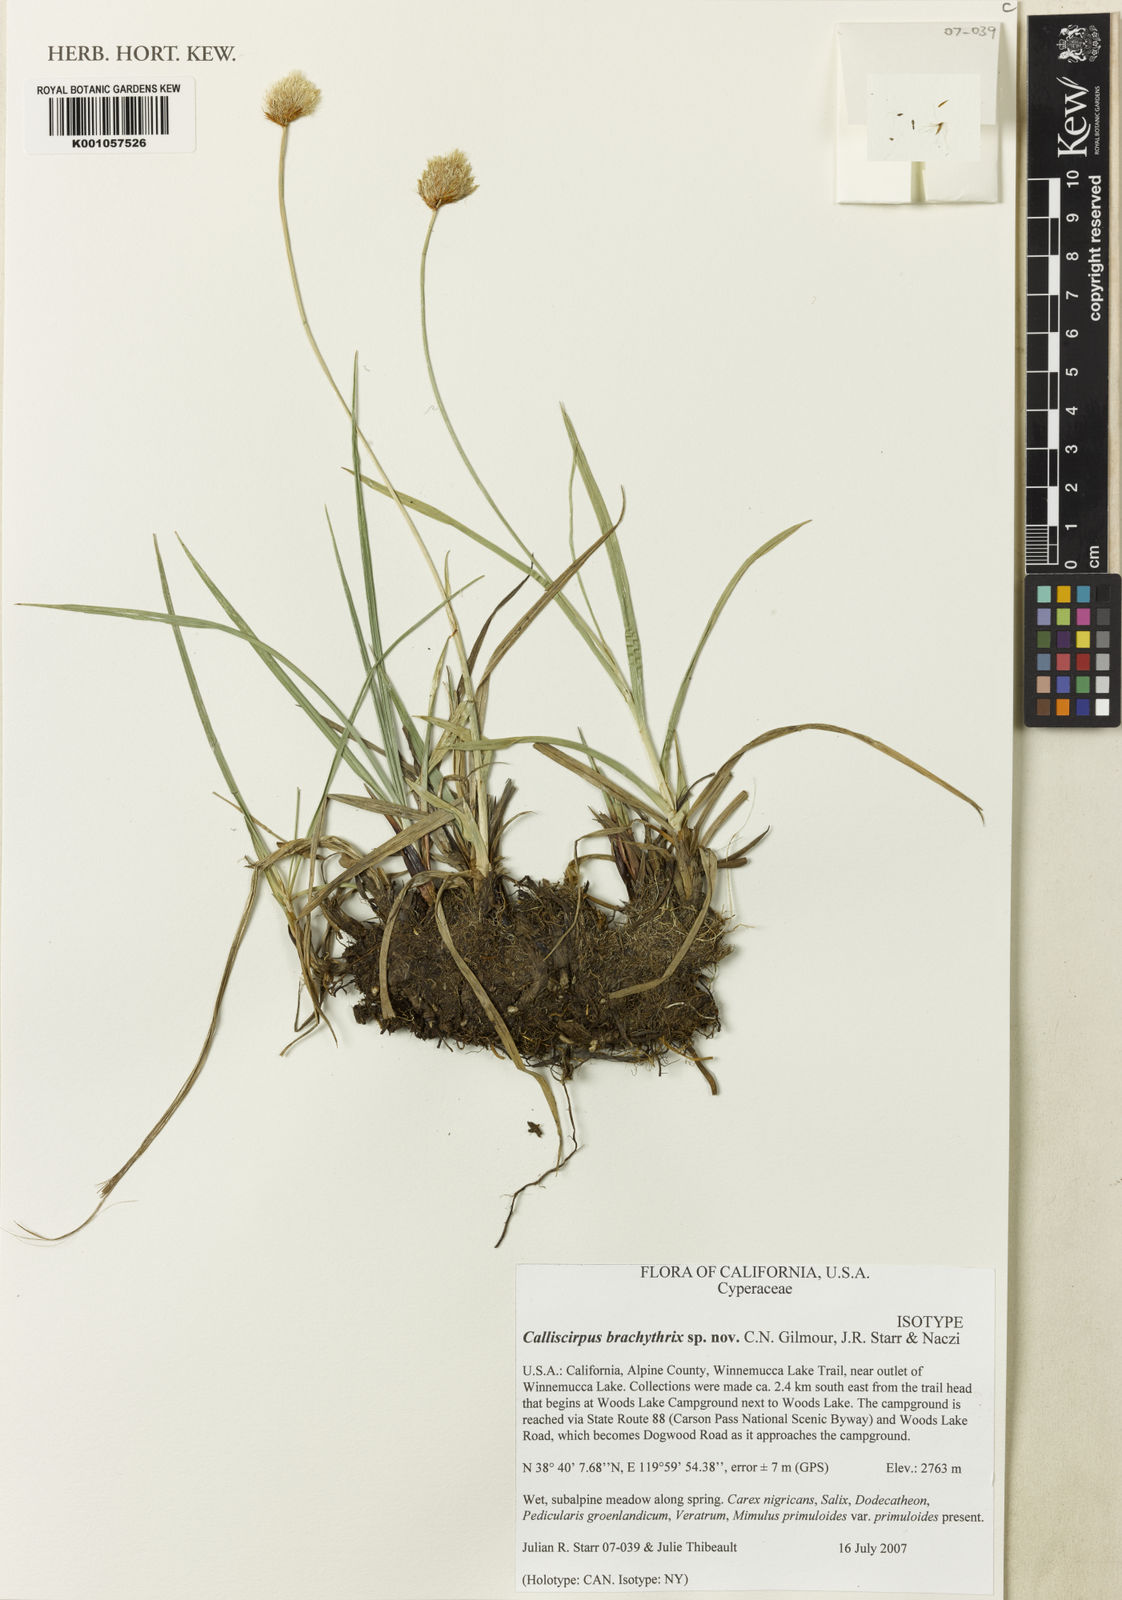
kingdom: Plantae
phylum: Tracheophyta
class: Liliopsida
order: Poales
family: Cyperaceae
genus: Calliscirpus
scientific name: Calliscirpus brachythrix
